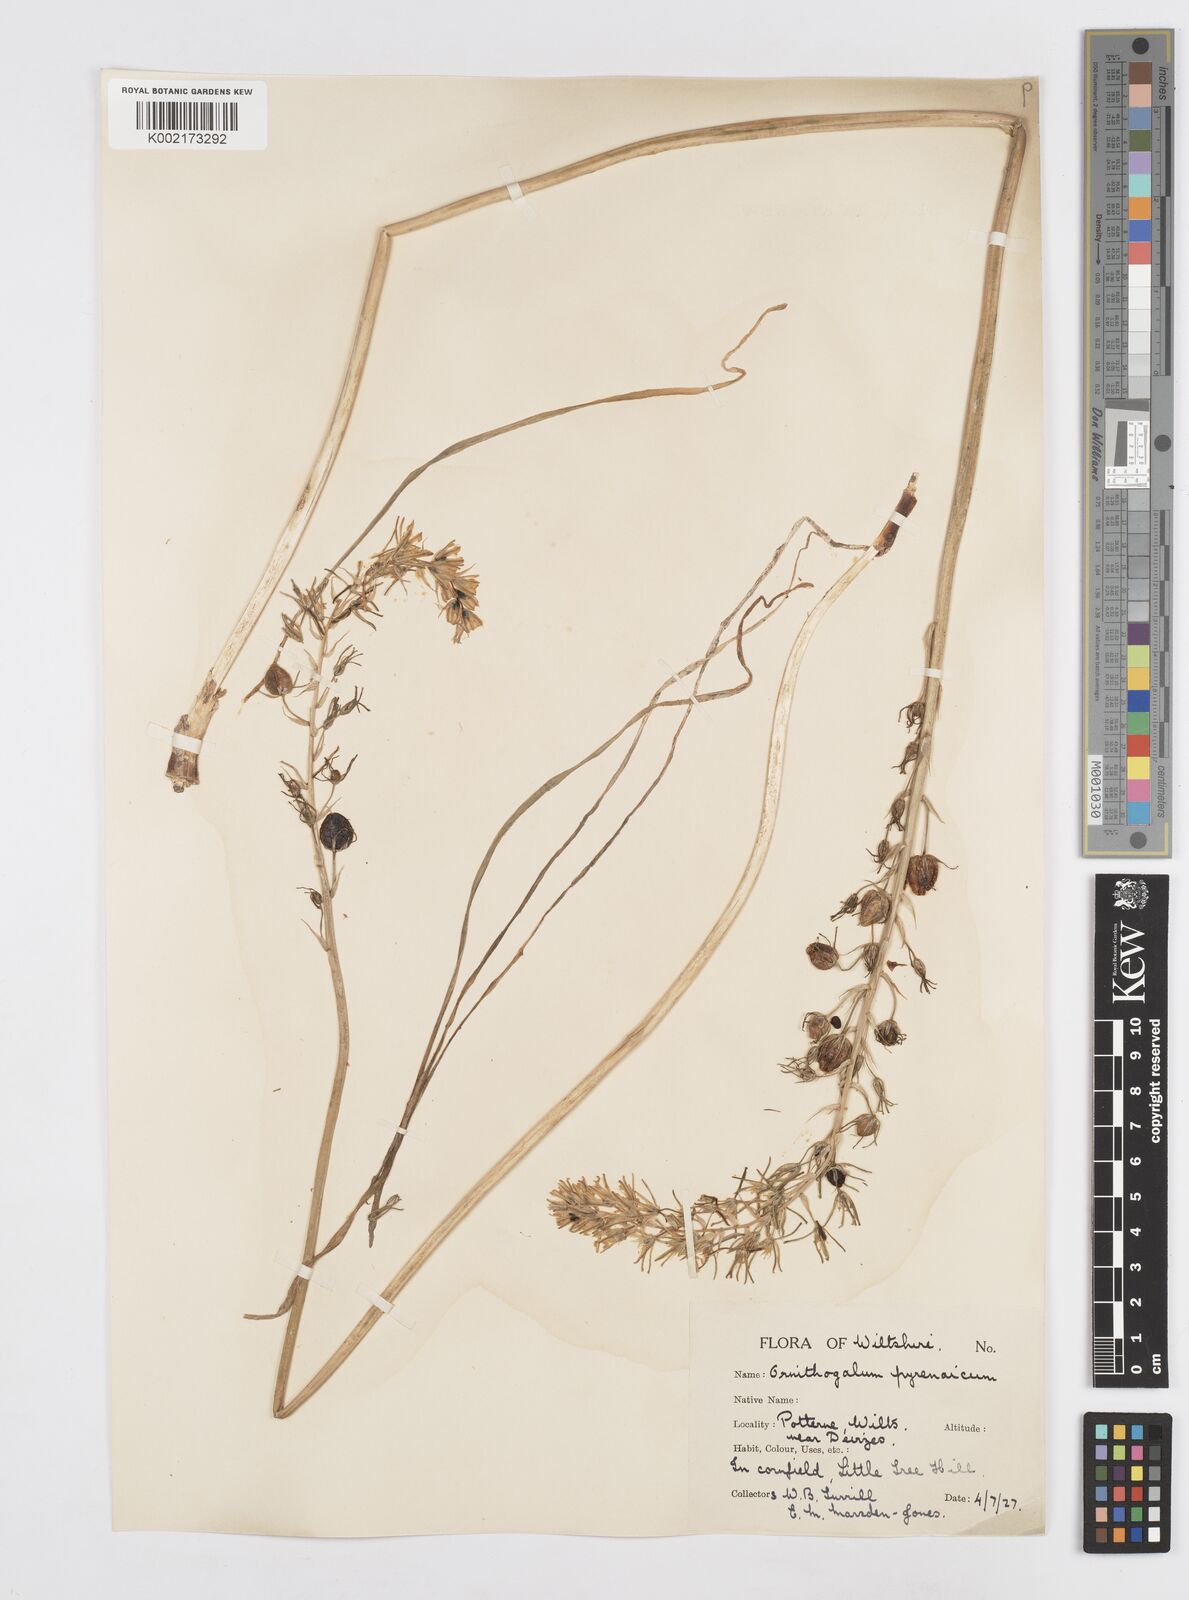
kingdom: Plantae
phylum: Tracheophyta
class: Liliopsida
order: Asparagales
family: Asparagaceae
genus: Ornithogalum
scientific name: Ornithogalum pyrenaicum
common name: Spiked star-of-bethlehem
